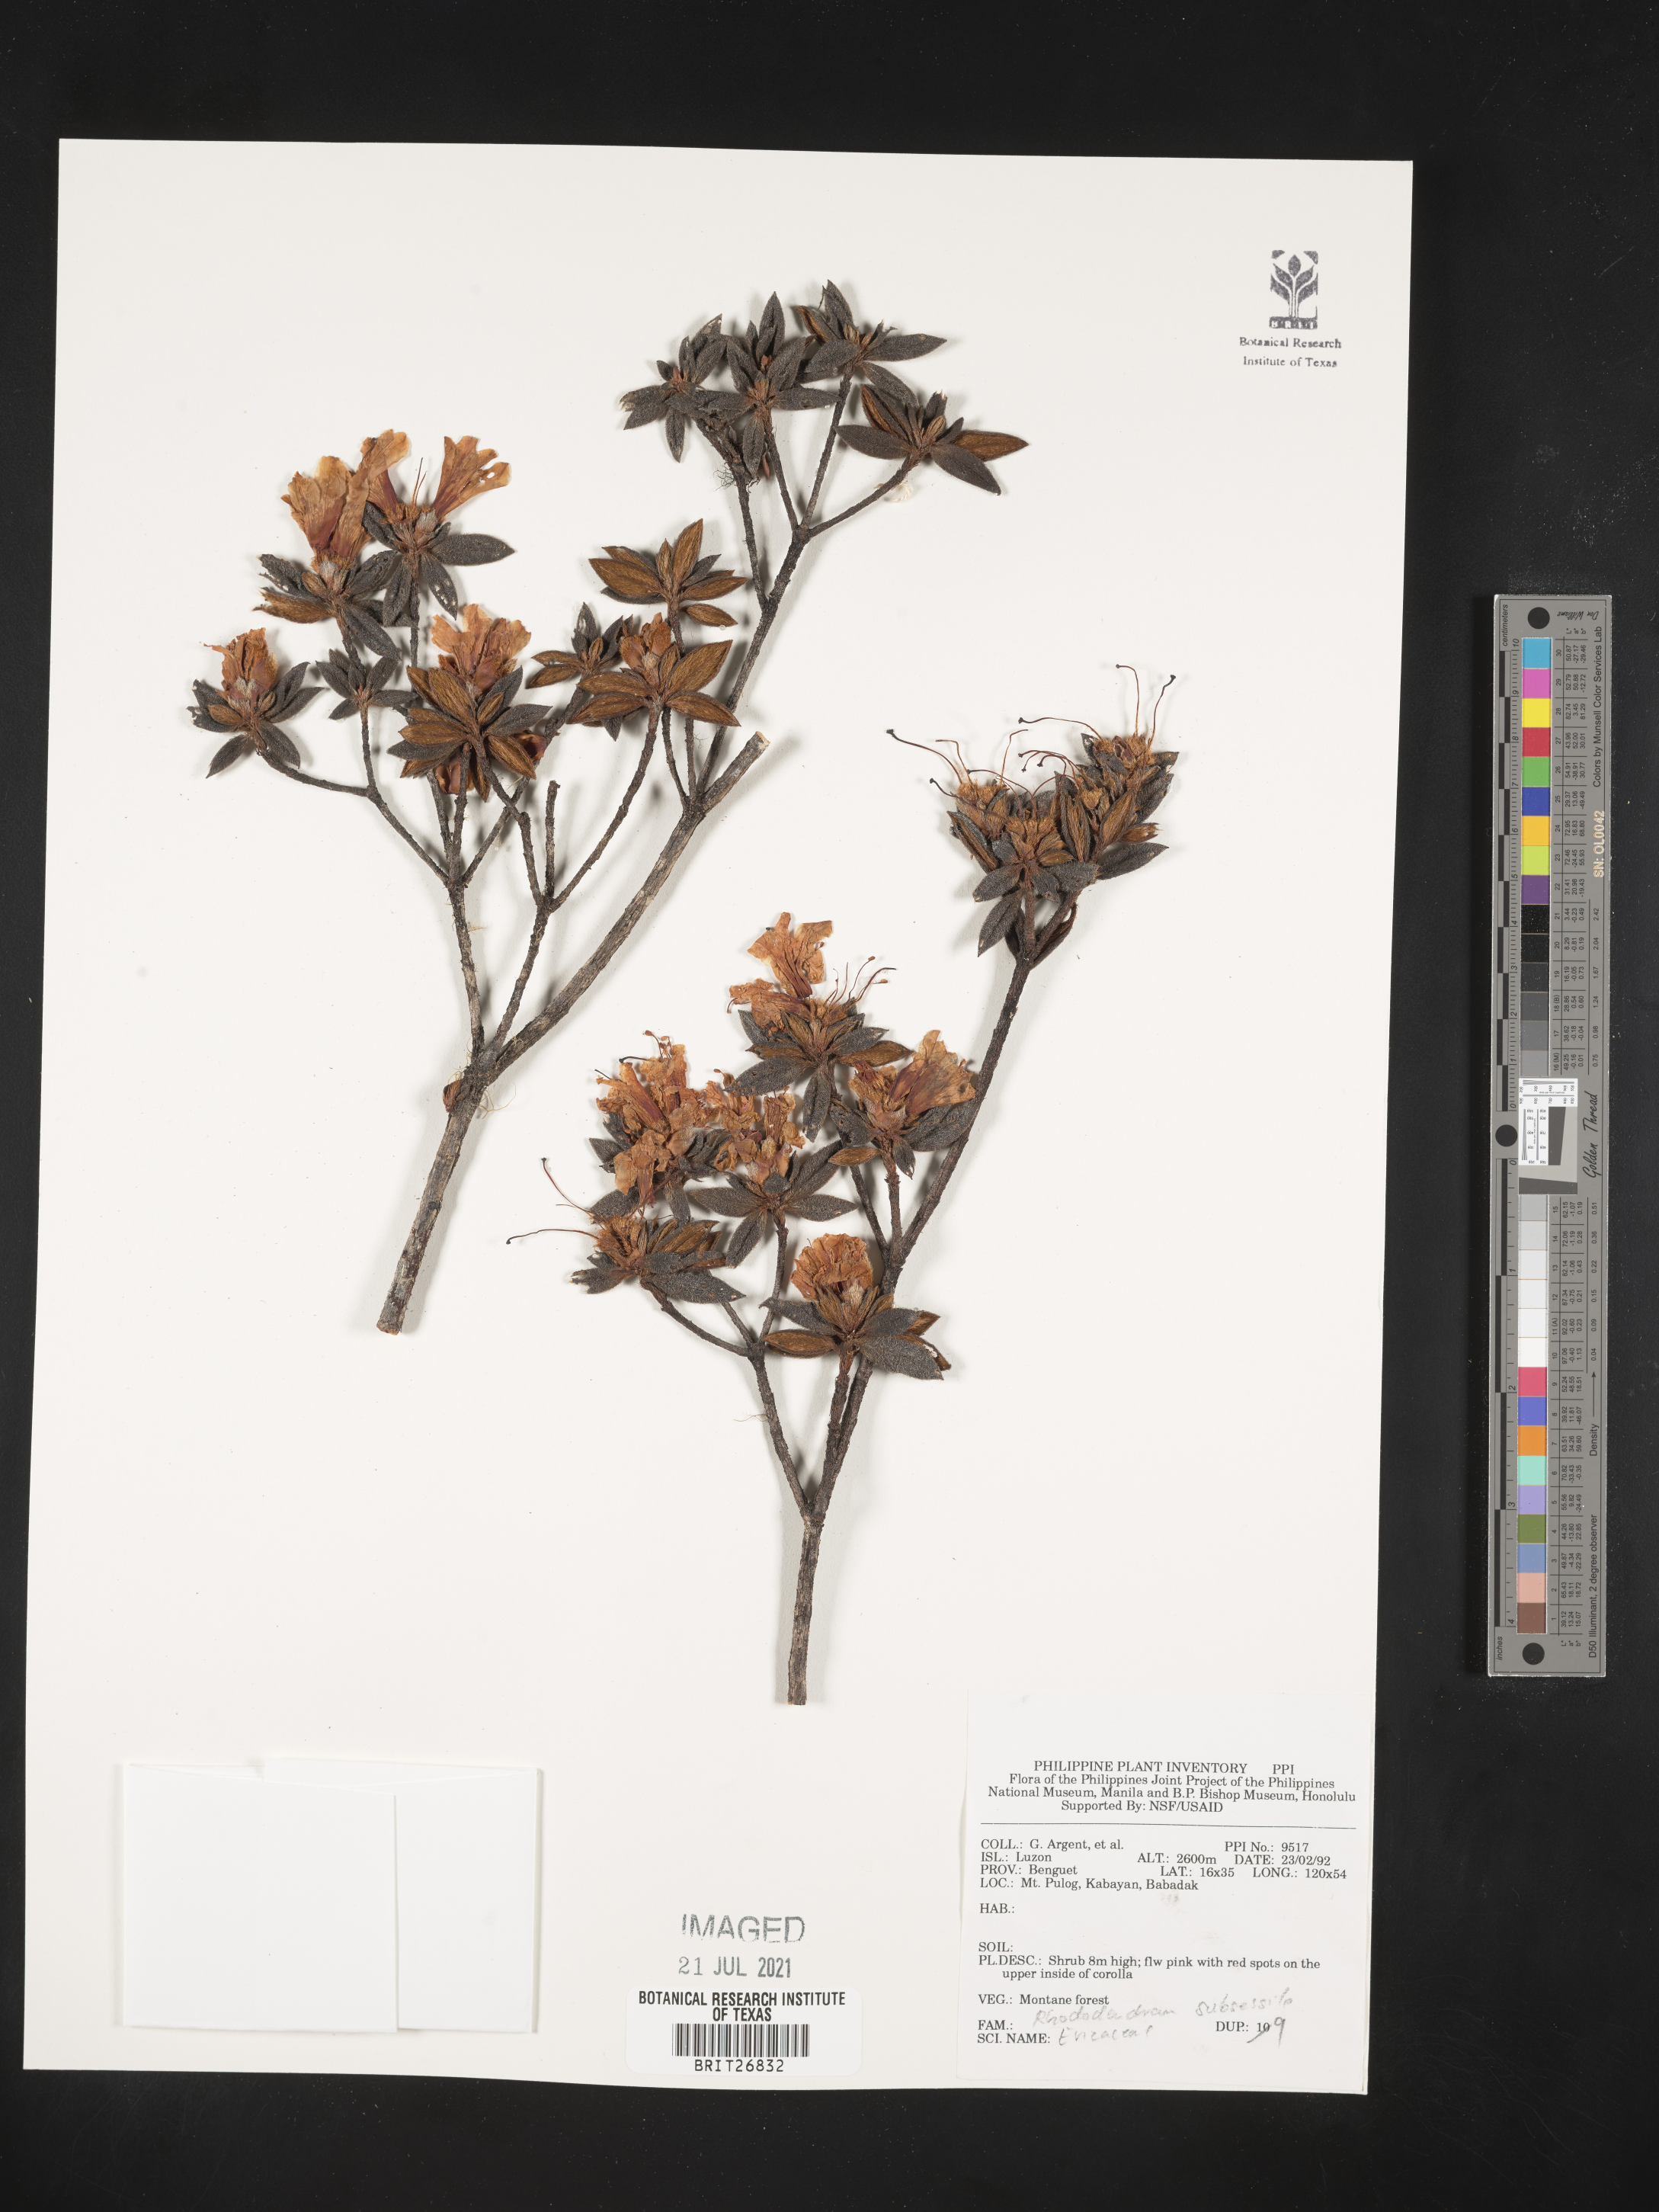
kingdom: Plantae
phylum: Tracheophyta
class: Magnoliopsida
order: Ericales
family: Ericaceae
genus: Rhododendron
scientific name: Rhododendron subsessile
